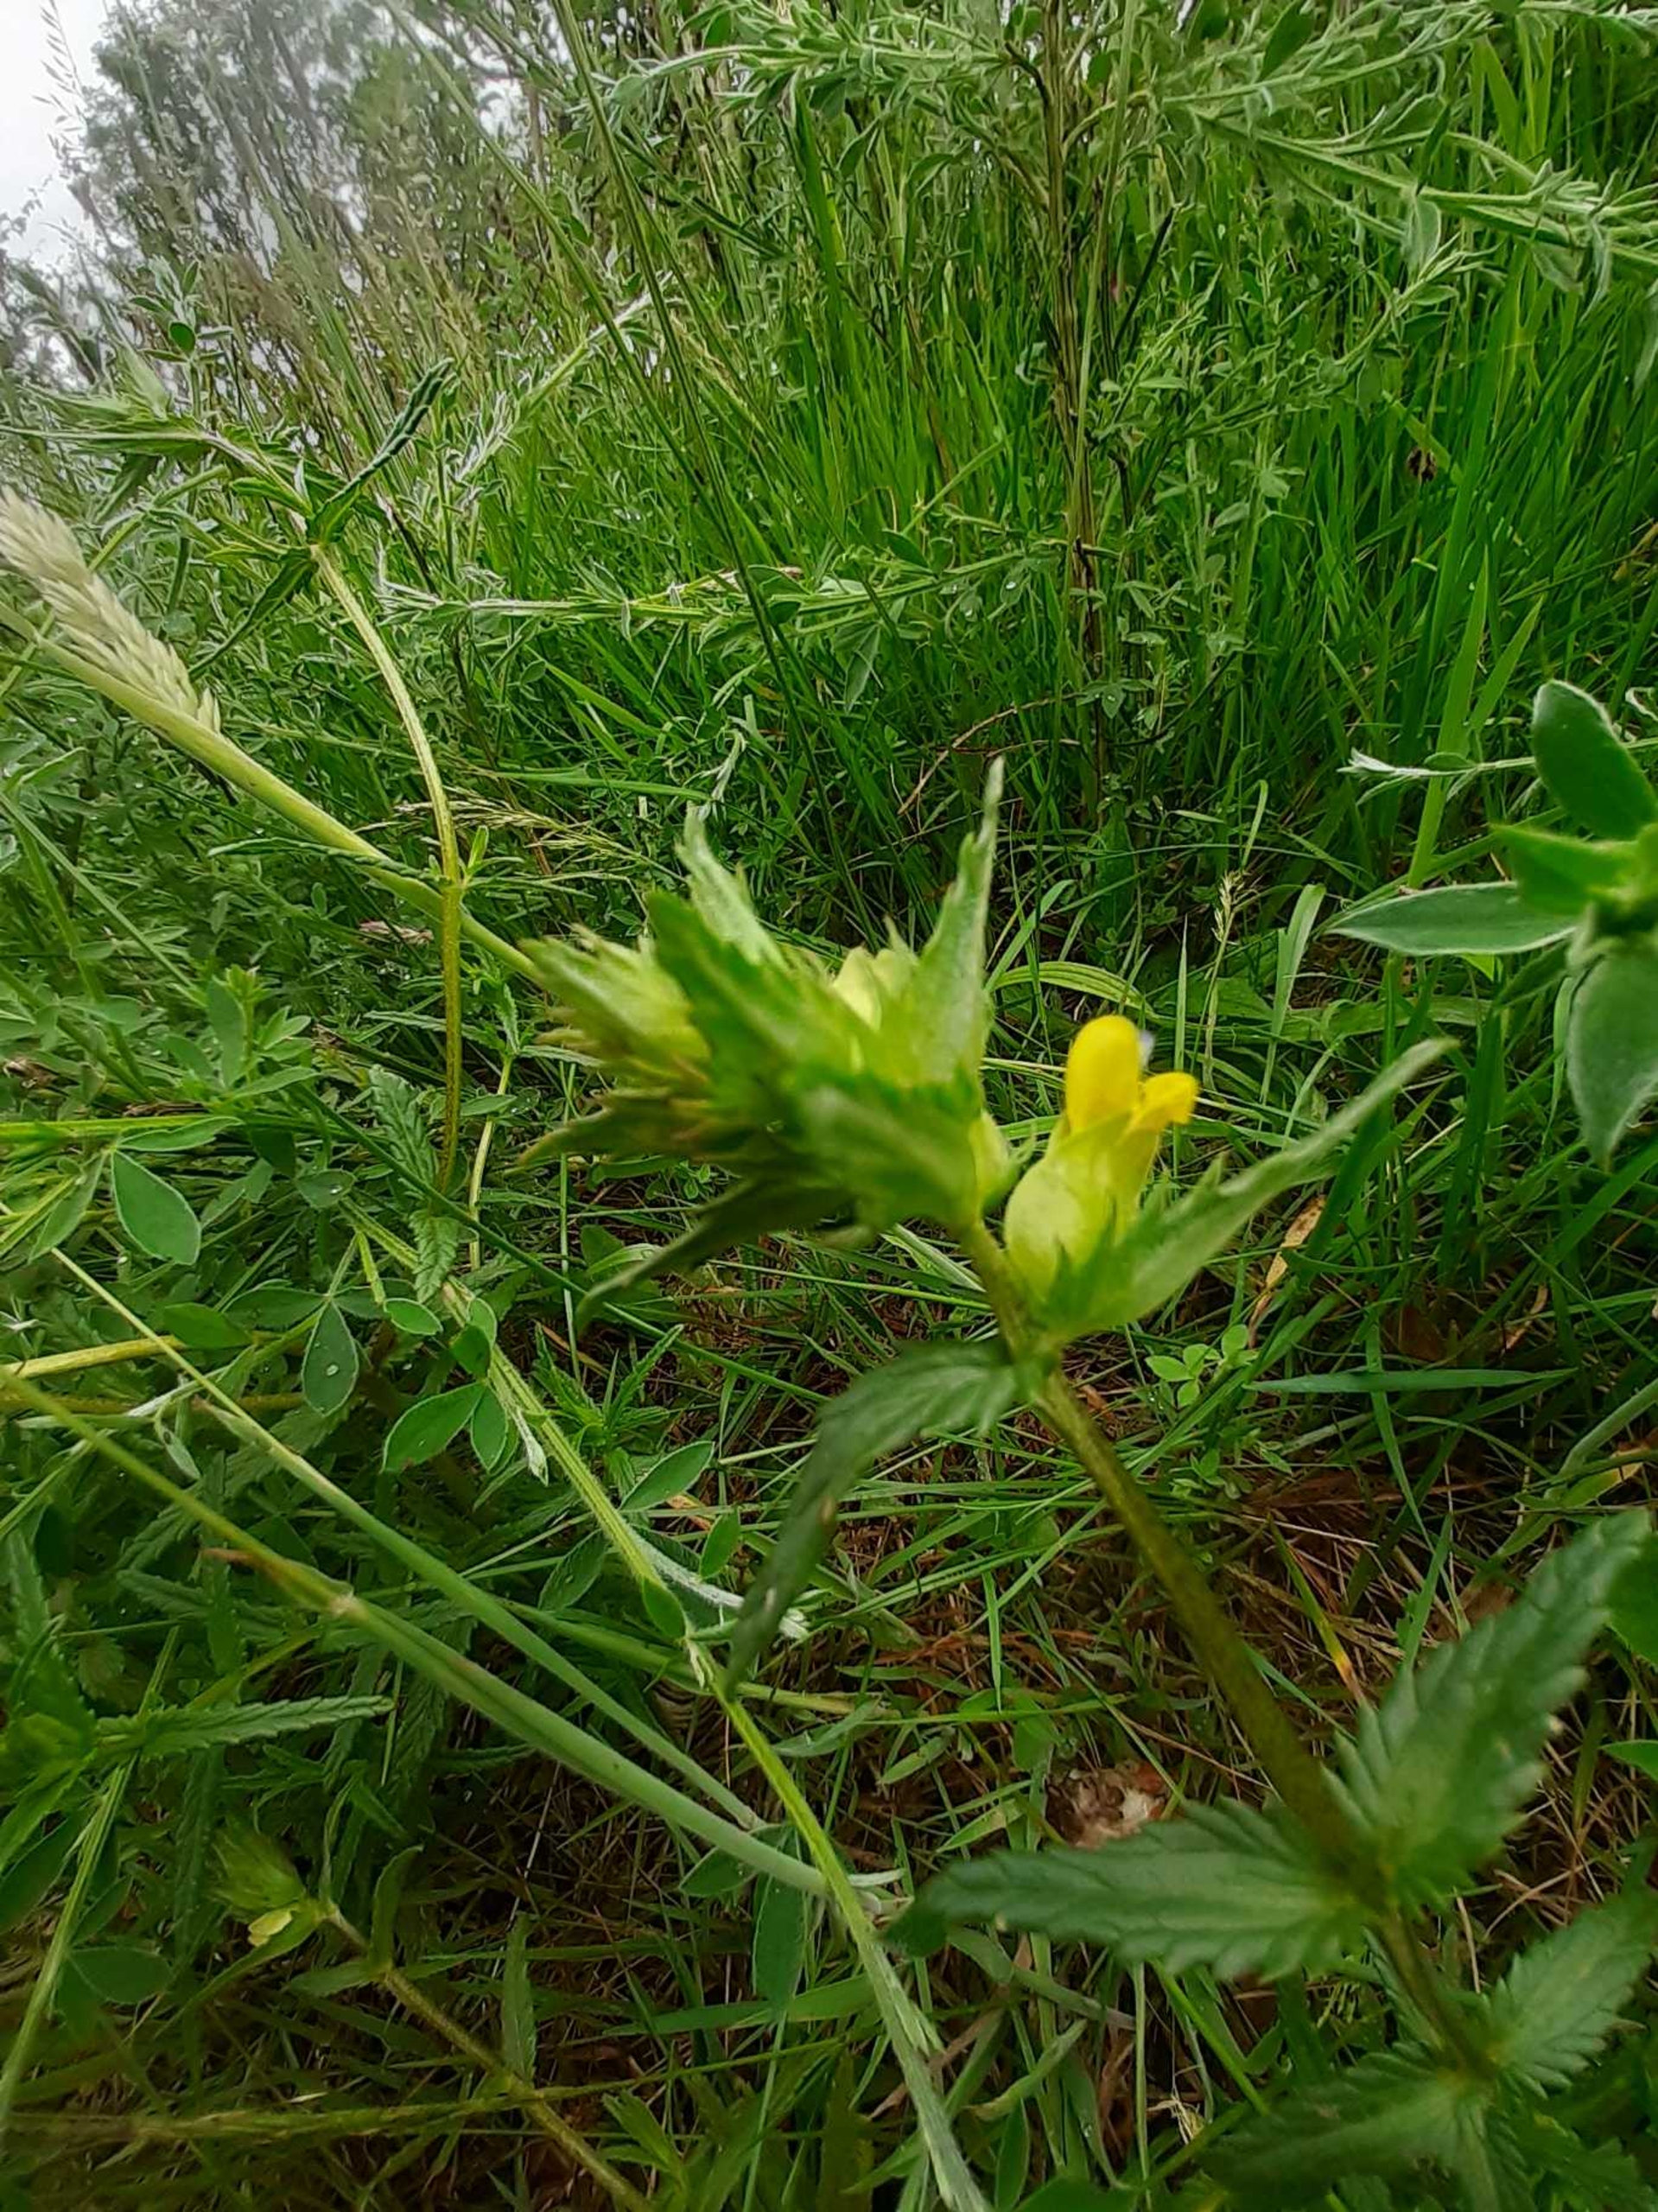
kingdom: Plantae
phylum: Tracheophyta
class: Magnoliopsida
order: Lamiales
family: Orobanchaceae
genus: Rhinanthus
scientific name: Rhinanthus minor
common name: Liden skjaller
